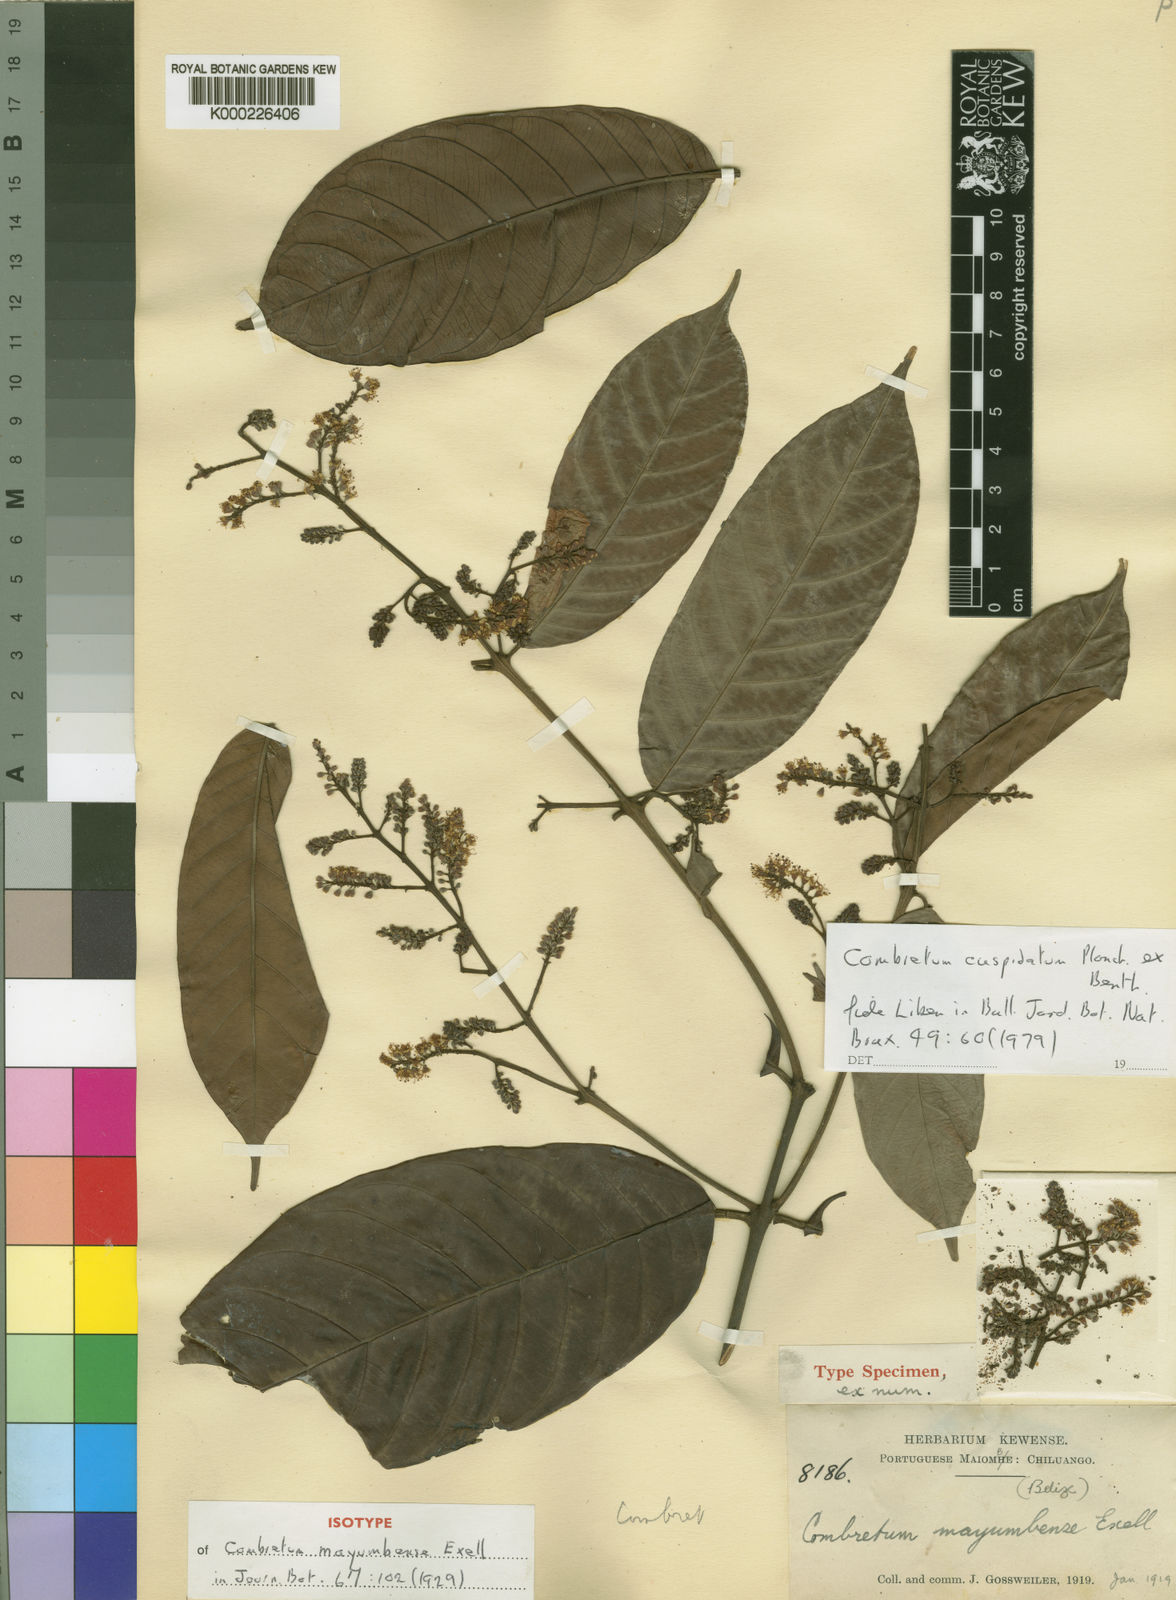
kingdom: Plantae
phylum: Tracheophyta
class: Magnoliopsida
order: Myrtales
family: Combretaceae
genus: Combretum
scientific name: Combretum cuspidatum
